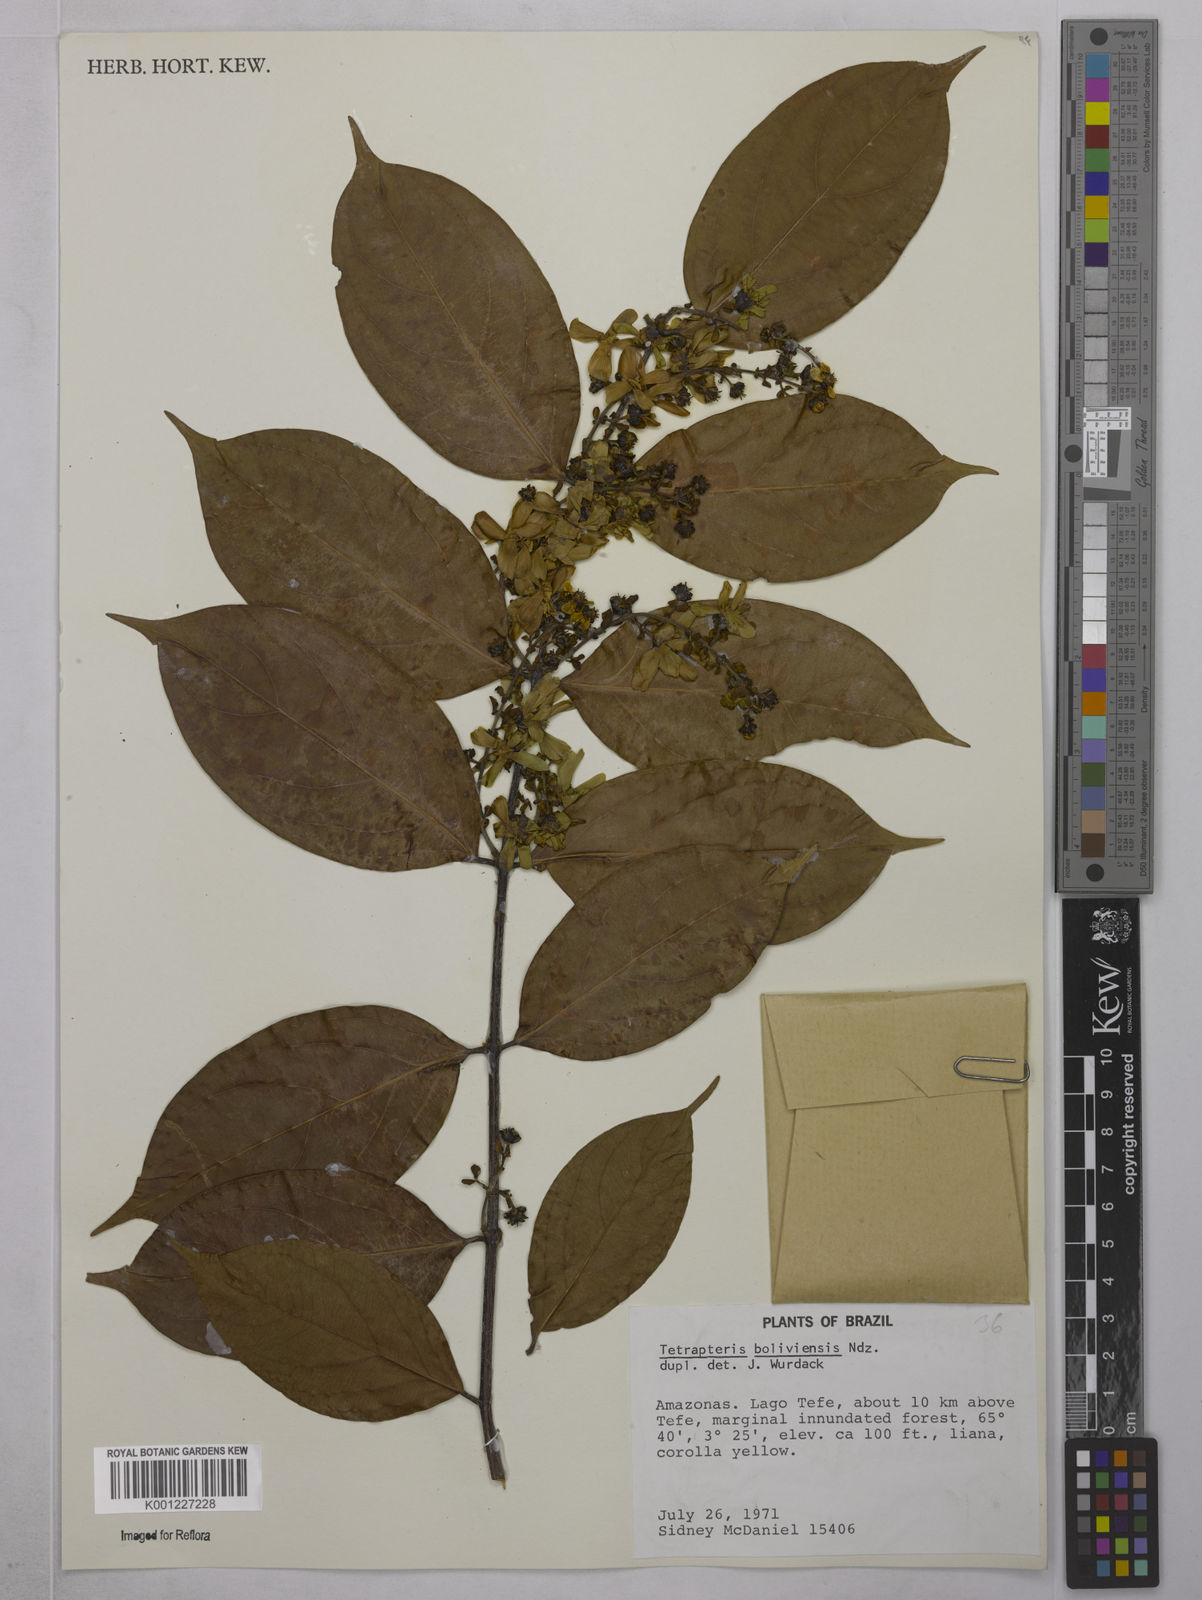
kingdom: Plantae
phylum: Tracheophyta
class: Magnoliopsida
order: Malpighiales
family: Malpighiaceae
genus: Glicophyllum
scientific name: Glicophyllum stylopterum
